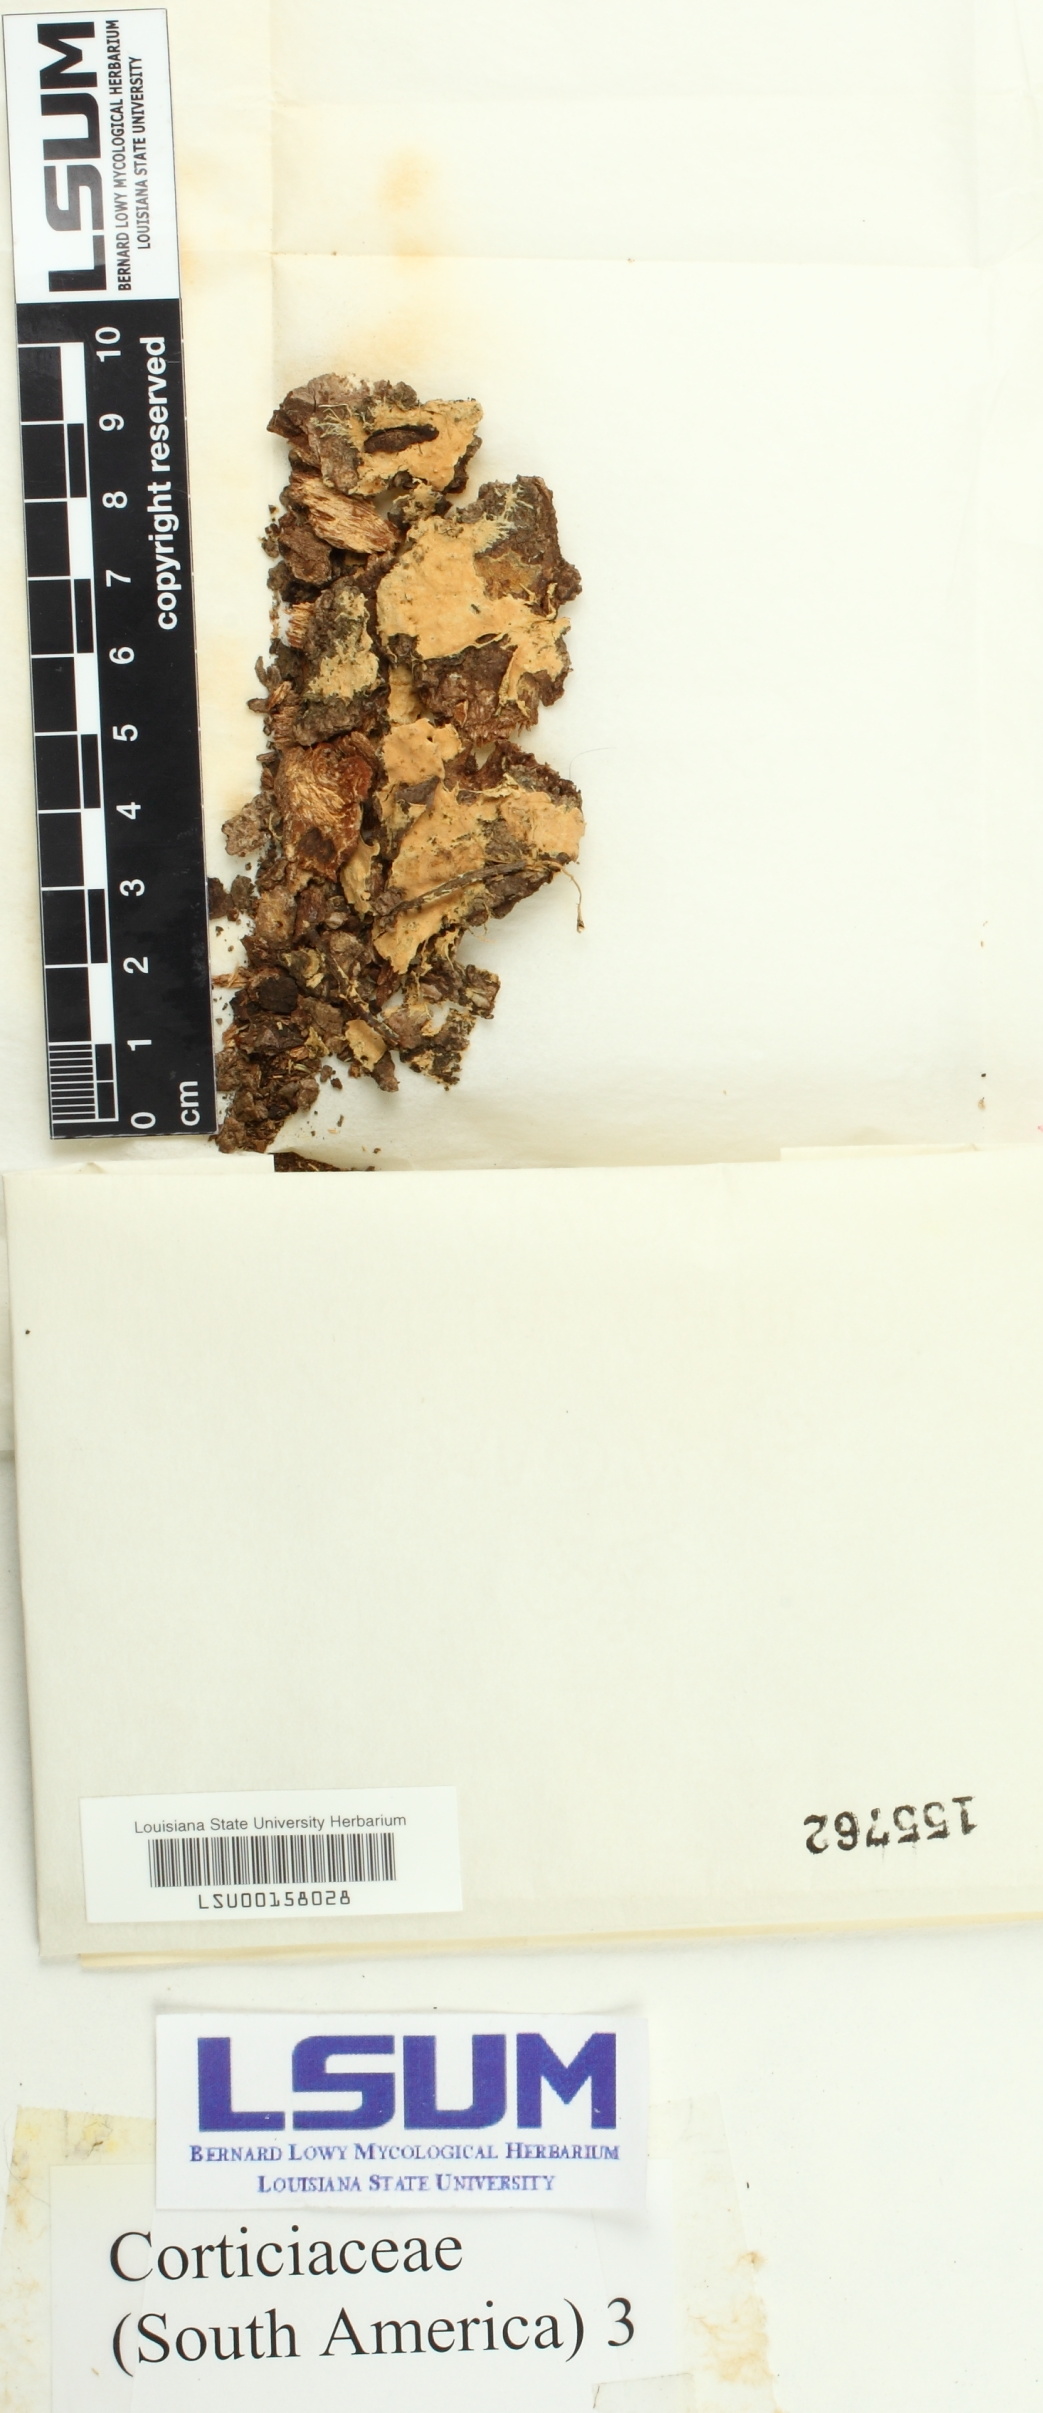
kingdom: Fungi
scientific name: Fungi
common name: Fungi
